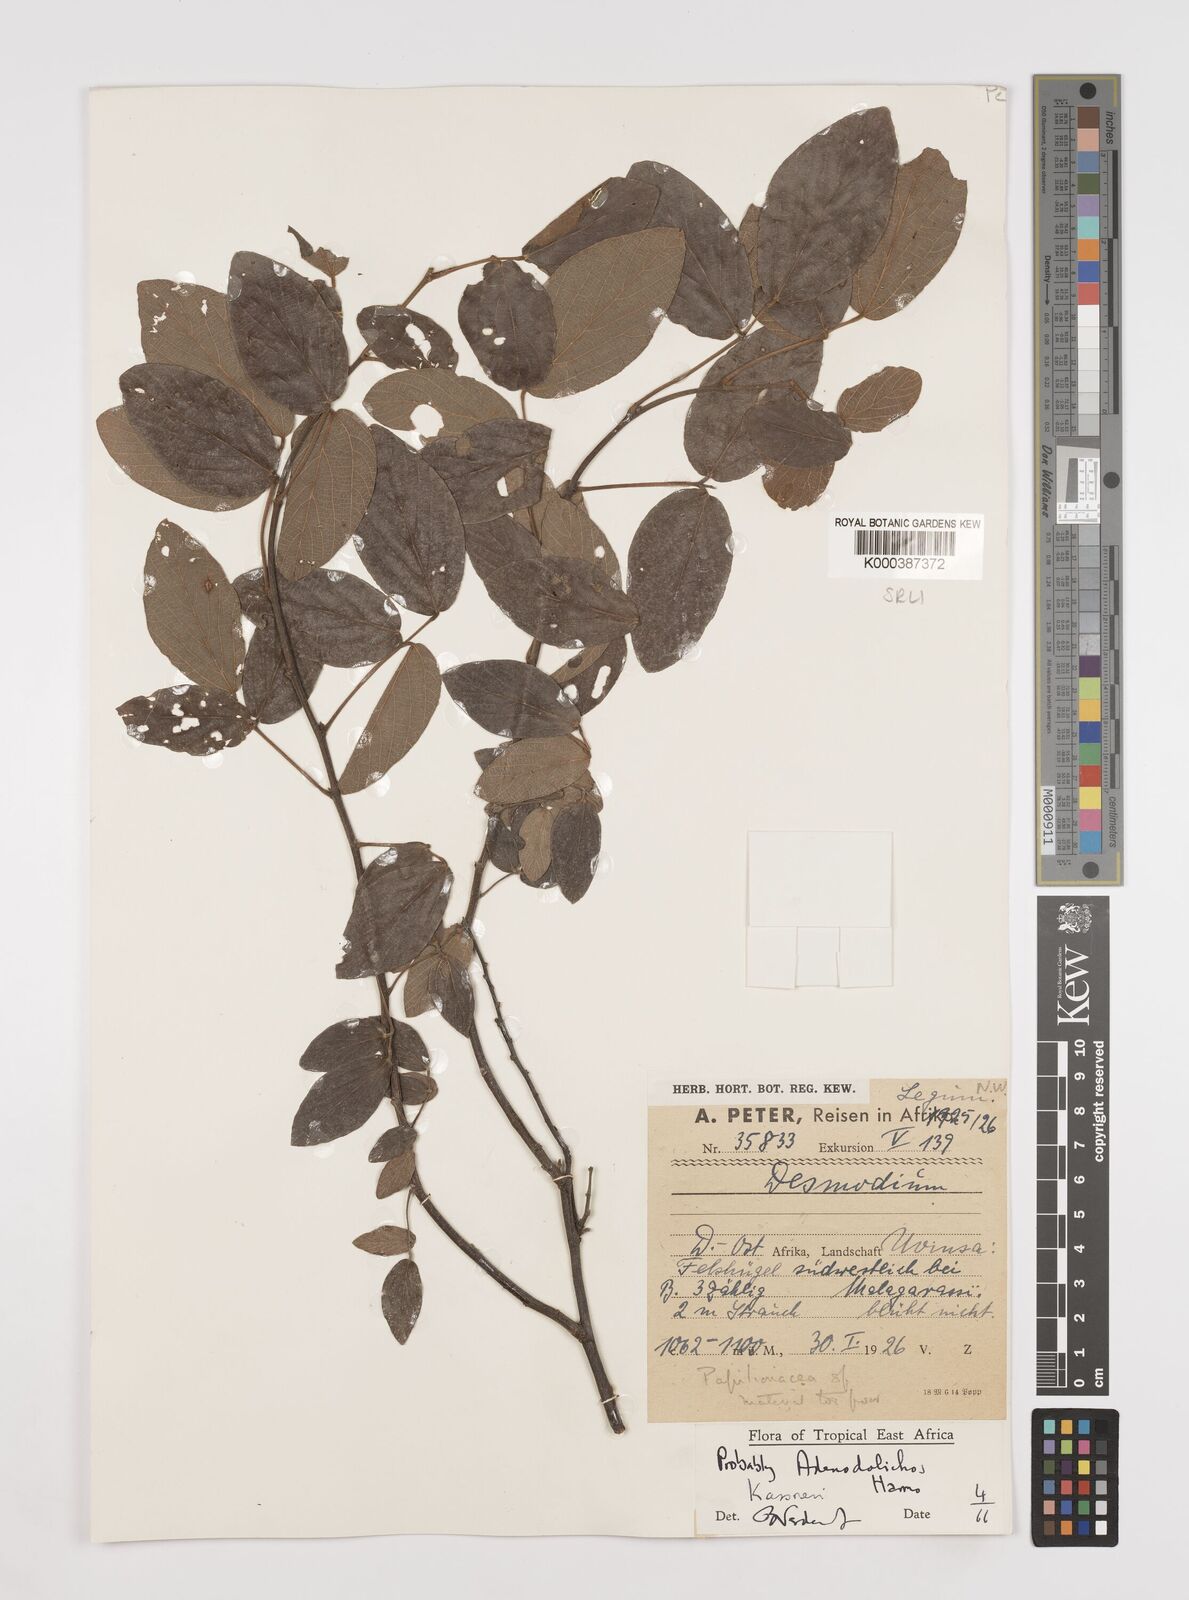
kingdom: Plantae
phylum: Tracheophyta
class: Magnoliopsida
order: Fabales
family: Fabaceae
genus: Adenodolichos
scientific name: Adenodolichos kaessneri
